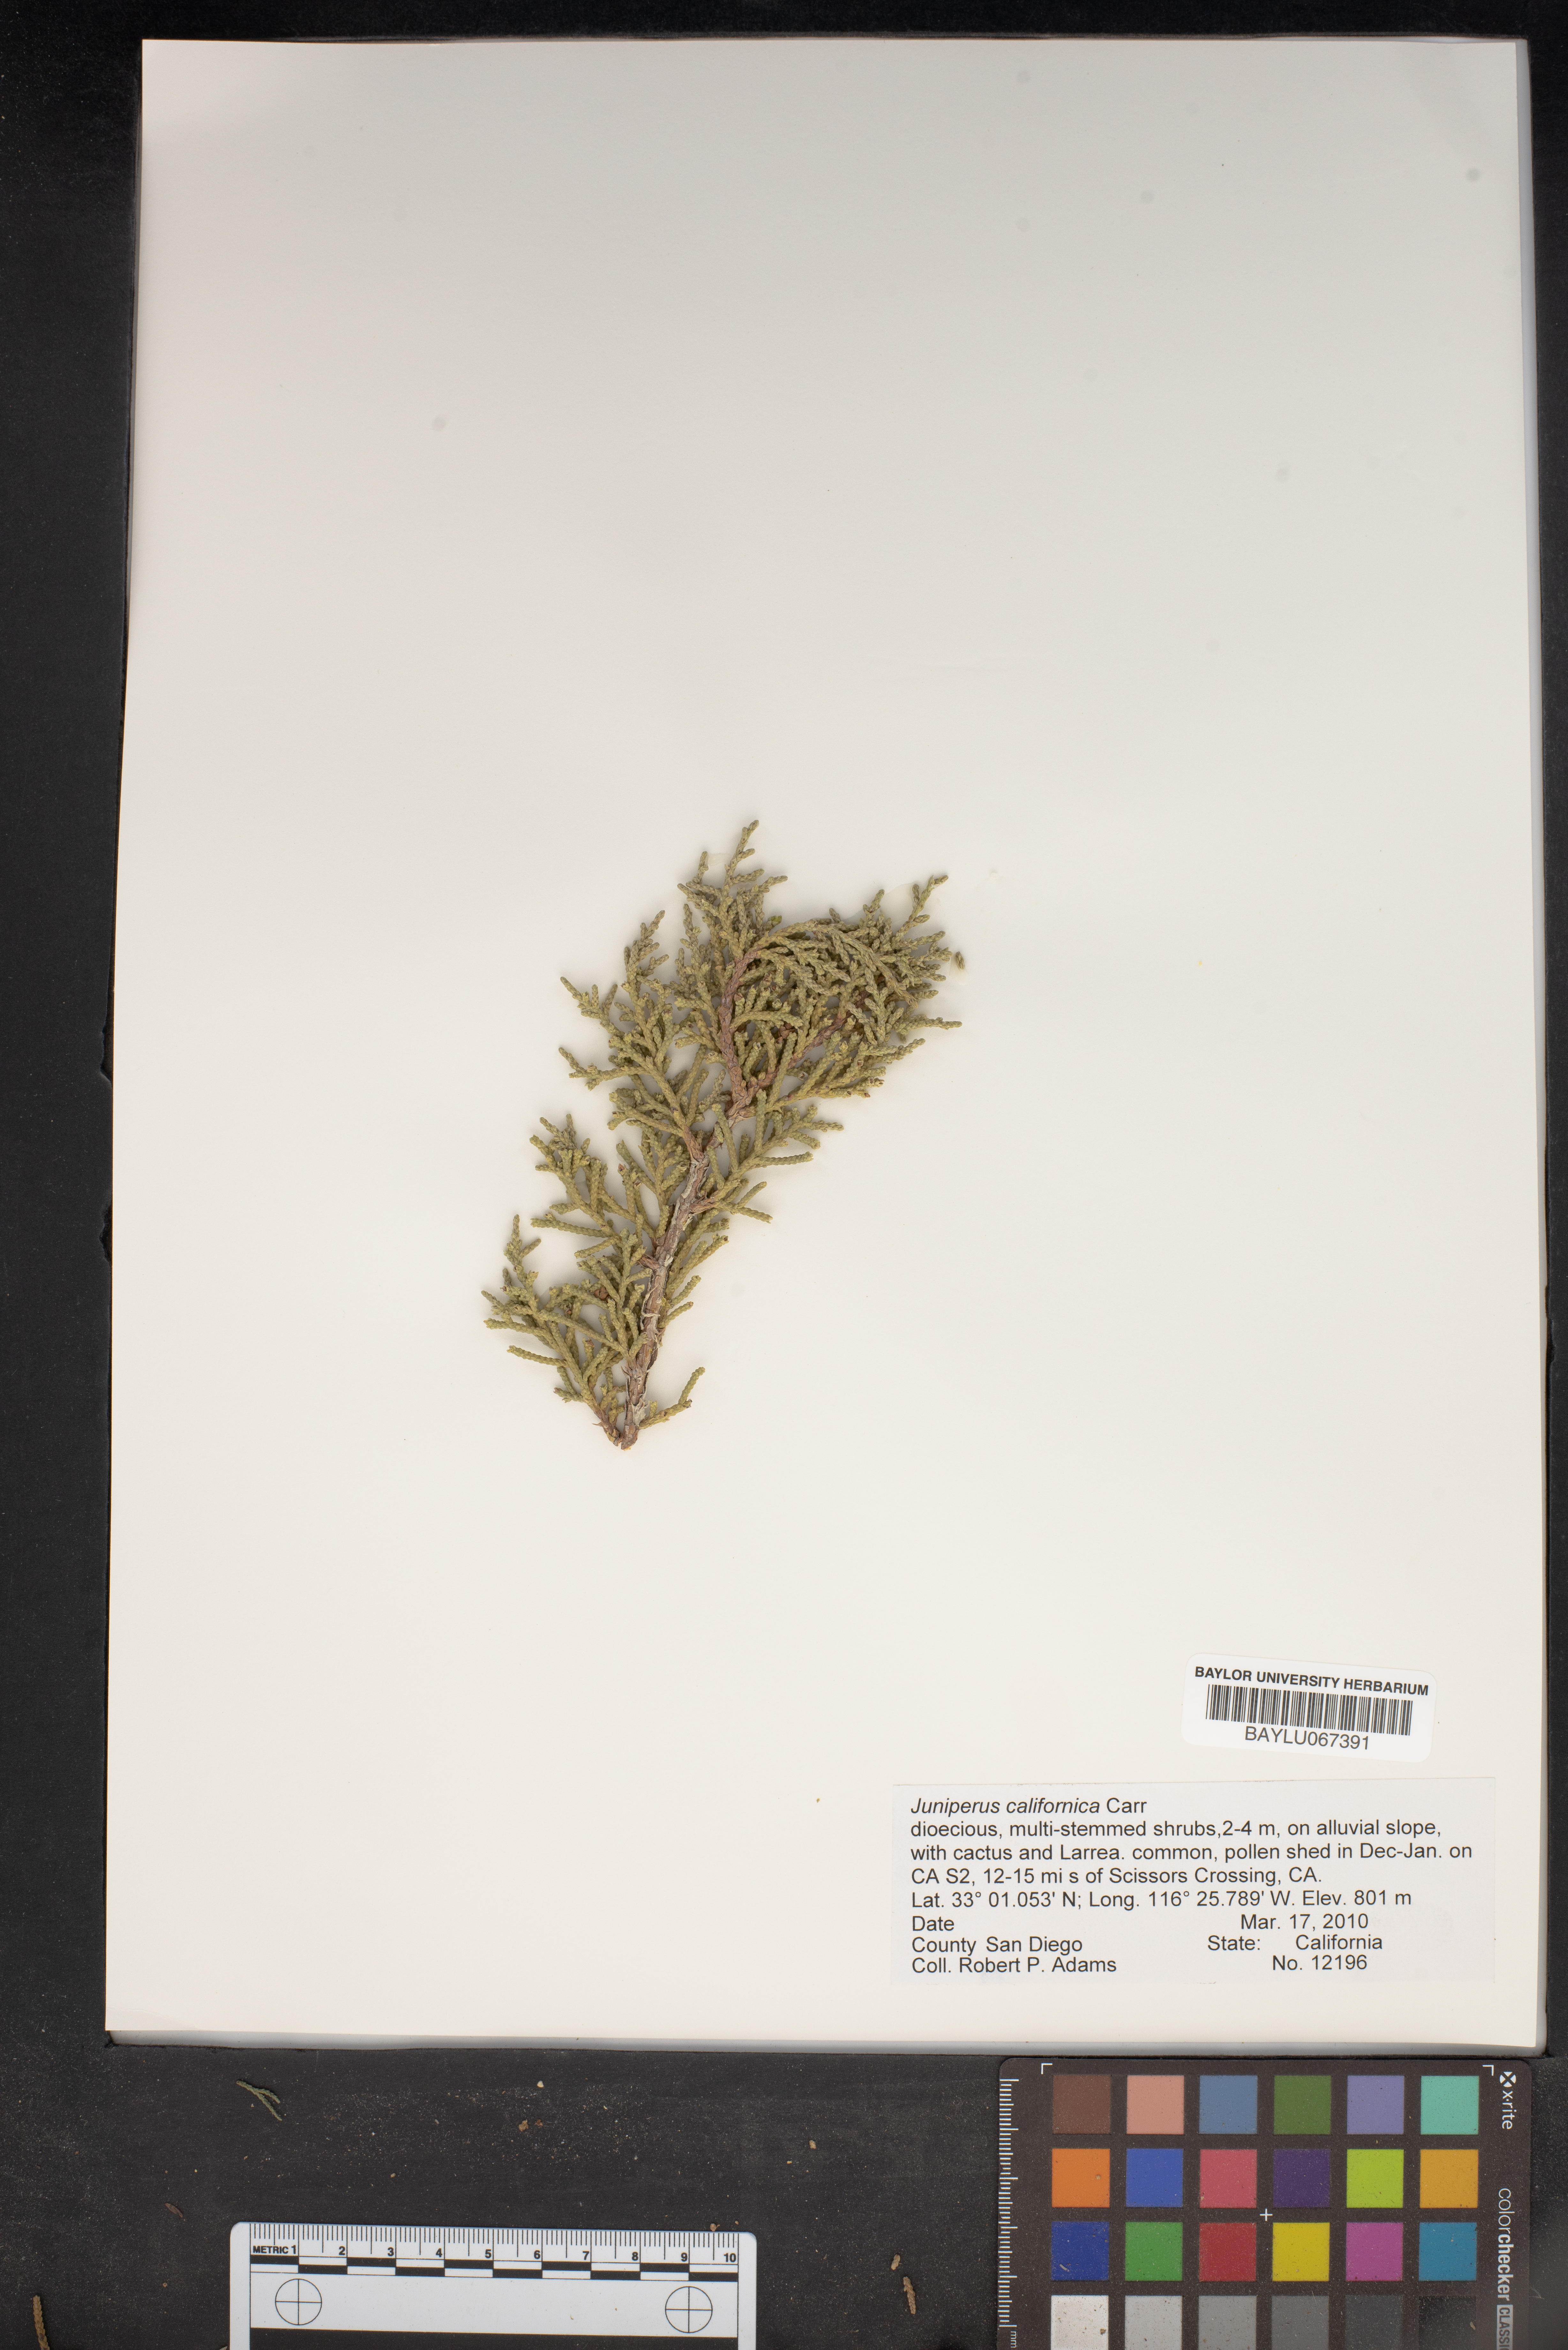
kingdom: Plantae
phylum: Tracheophyta
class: Pinopsida
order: Pinales
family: Cupressaceae
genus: Juniperus
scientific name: Juniperus californica
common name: California juniper
